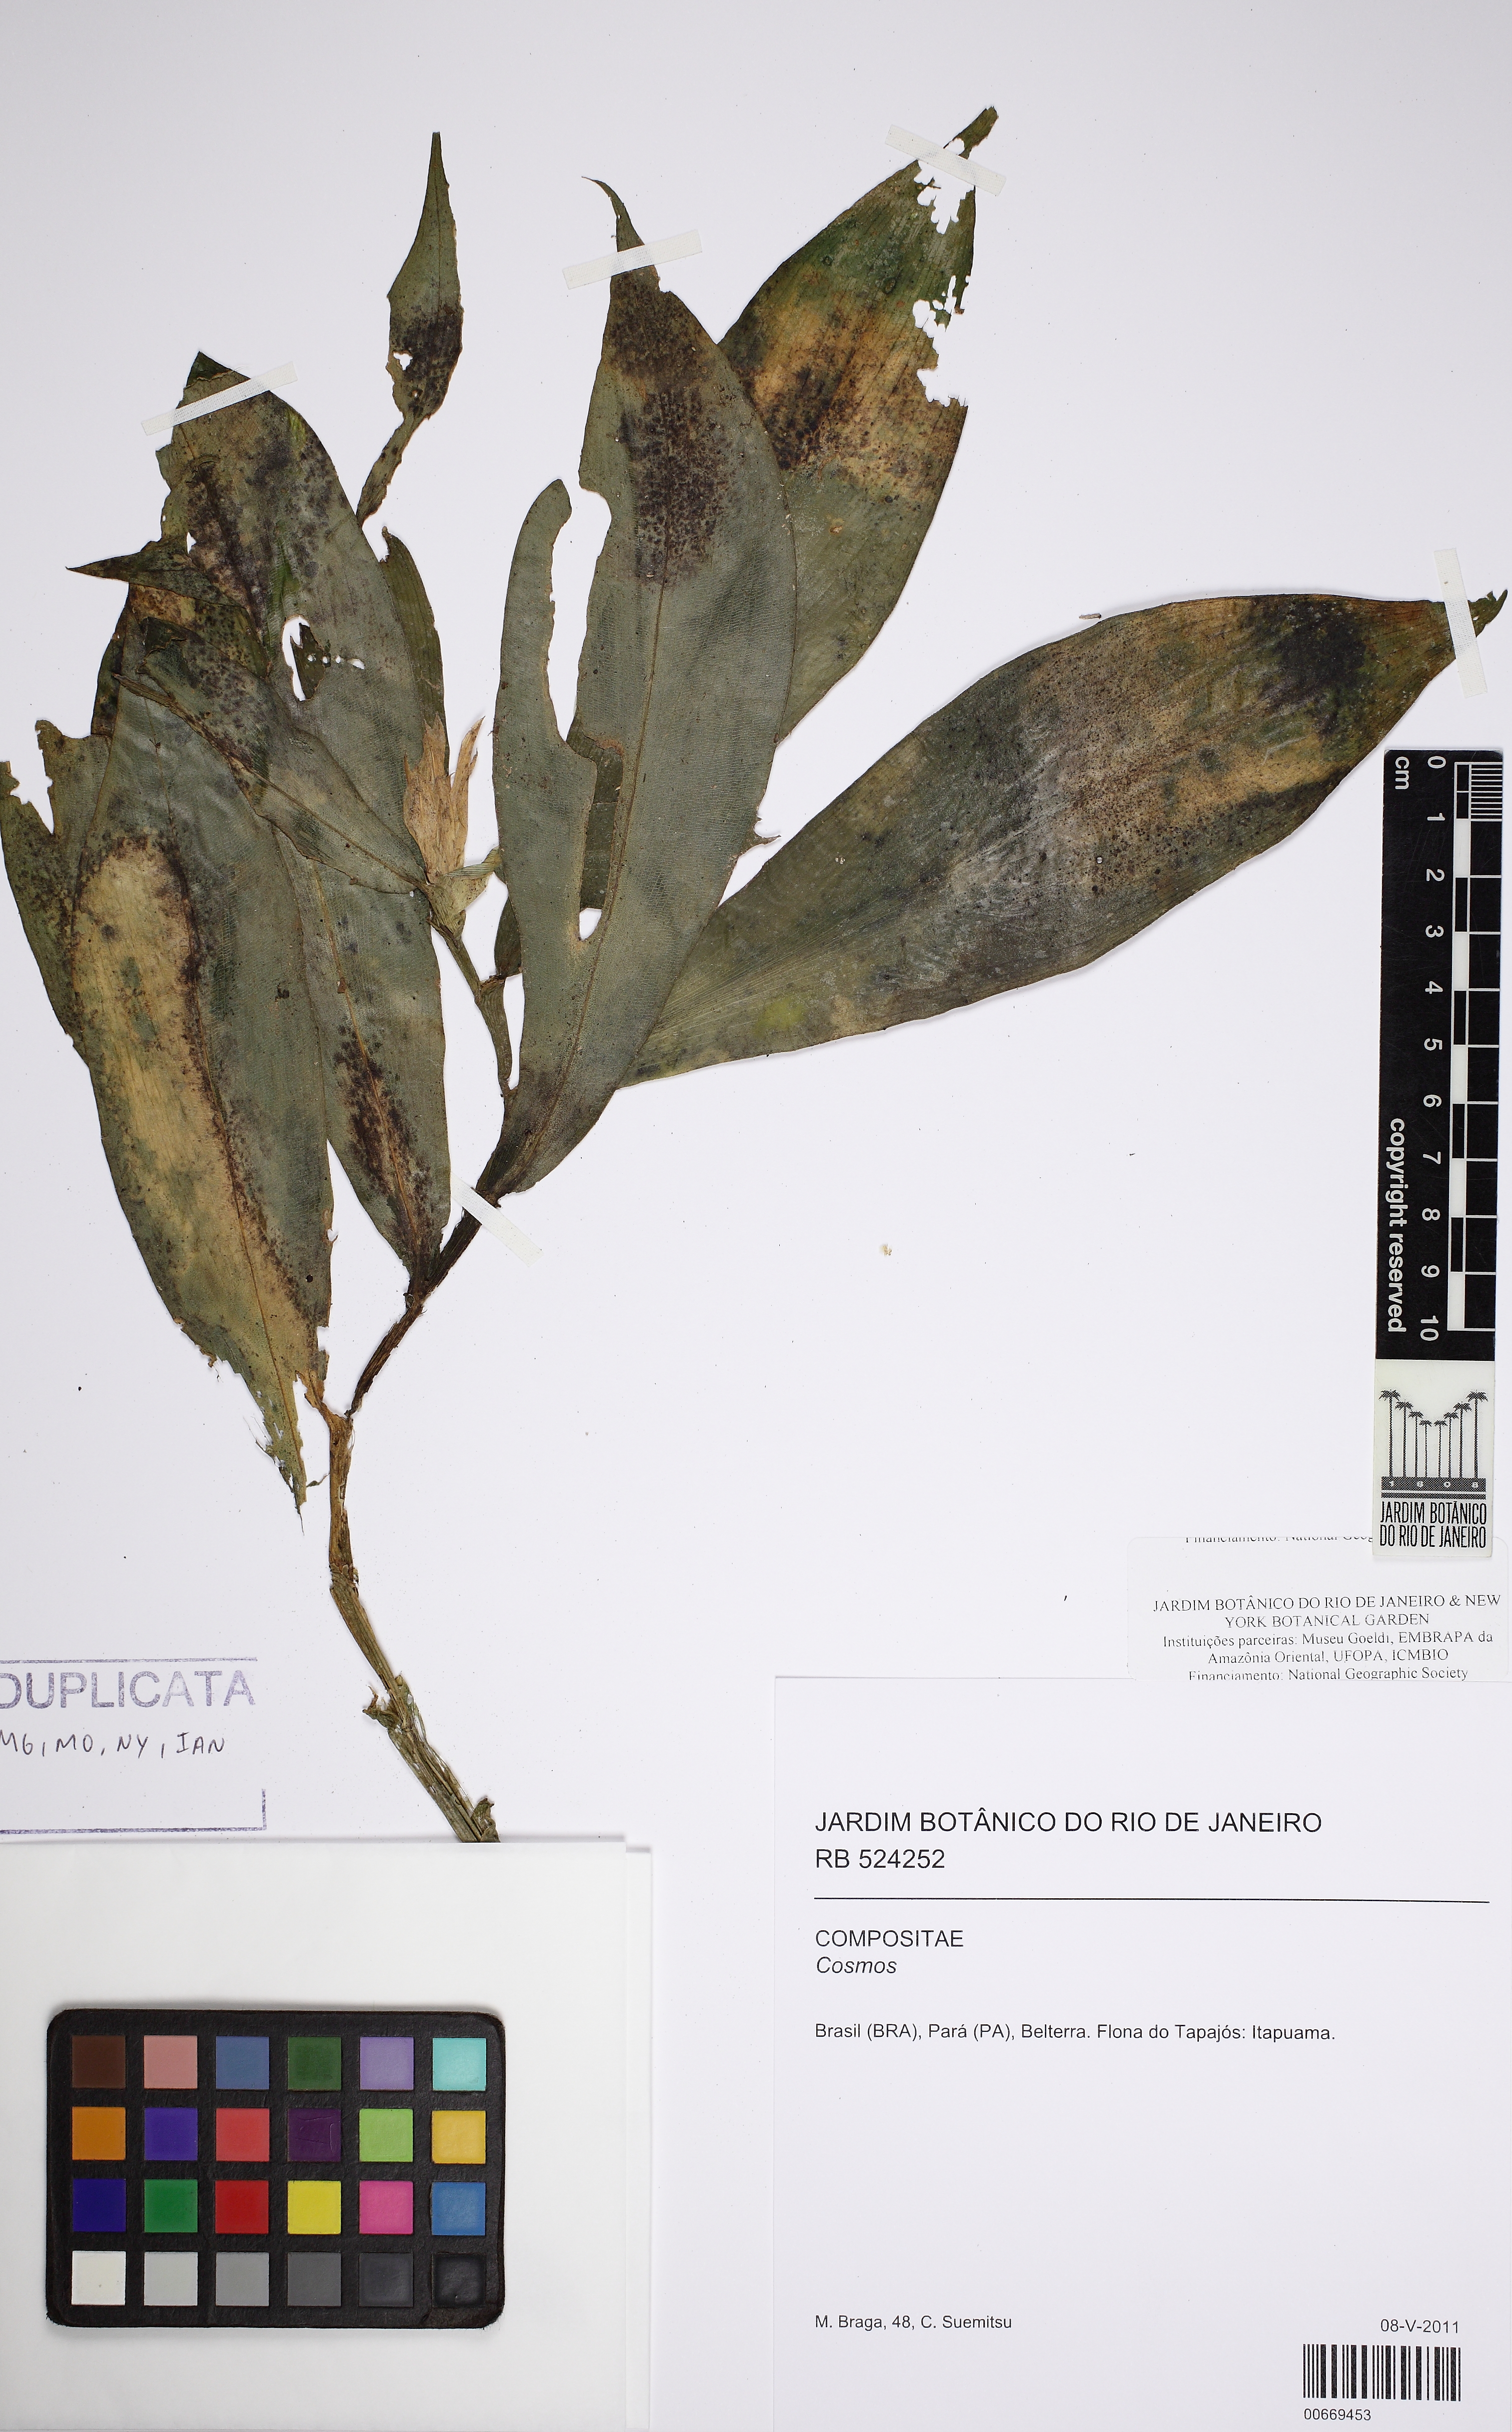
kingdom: Plantae
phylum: Tracheophyta
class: Liliopsida
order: Zingiberales
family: Costaceae
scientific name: Costaceae
